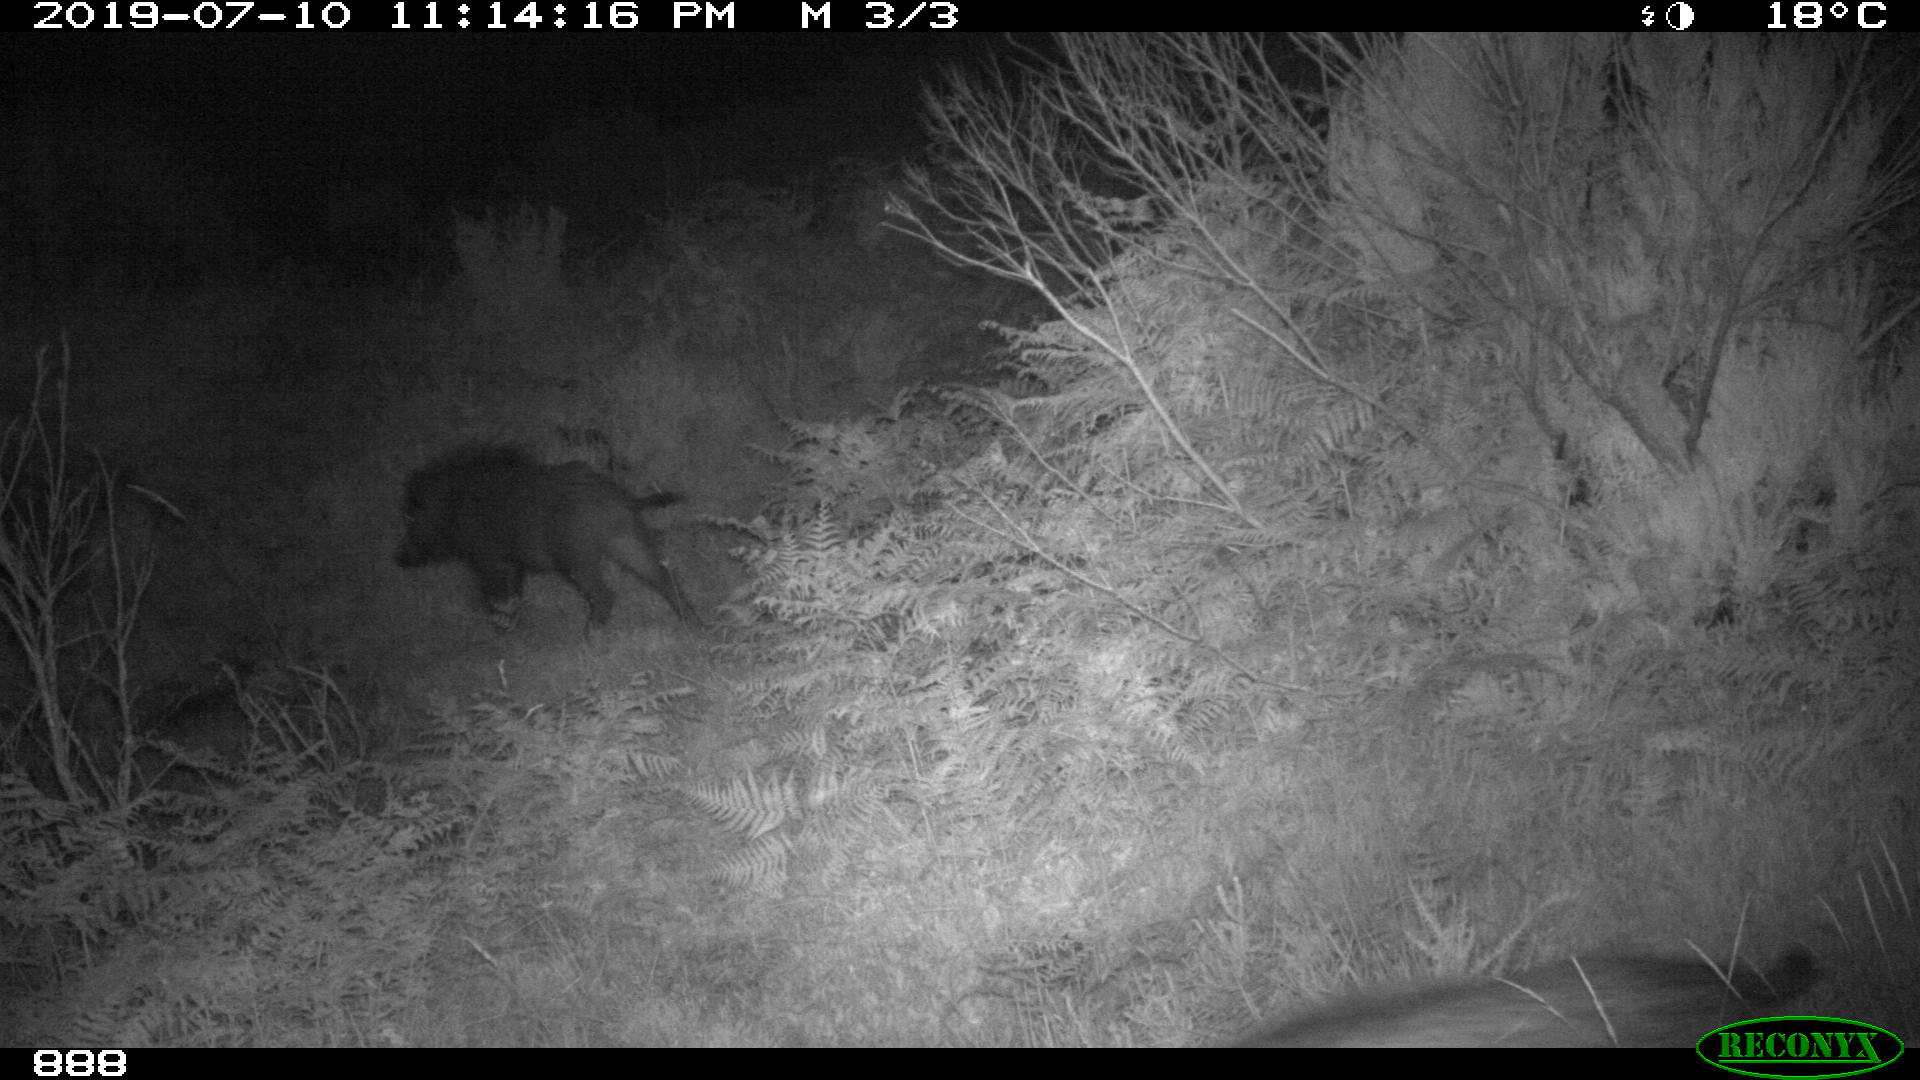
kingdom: Animalia
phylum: Chordata
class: Mammalia
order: Artiodactyla
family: Suidae
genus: Sus
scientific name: Sus scrofa
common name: Wild boar
